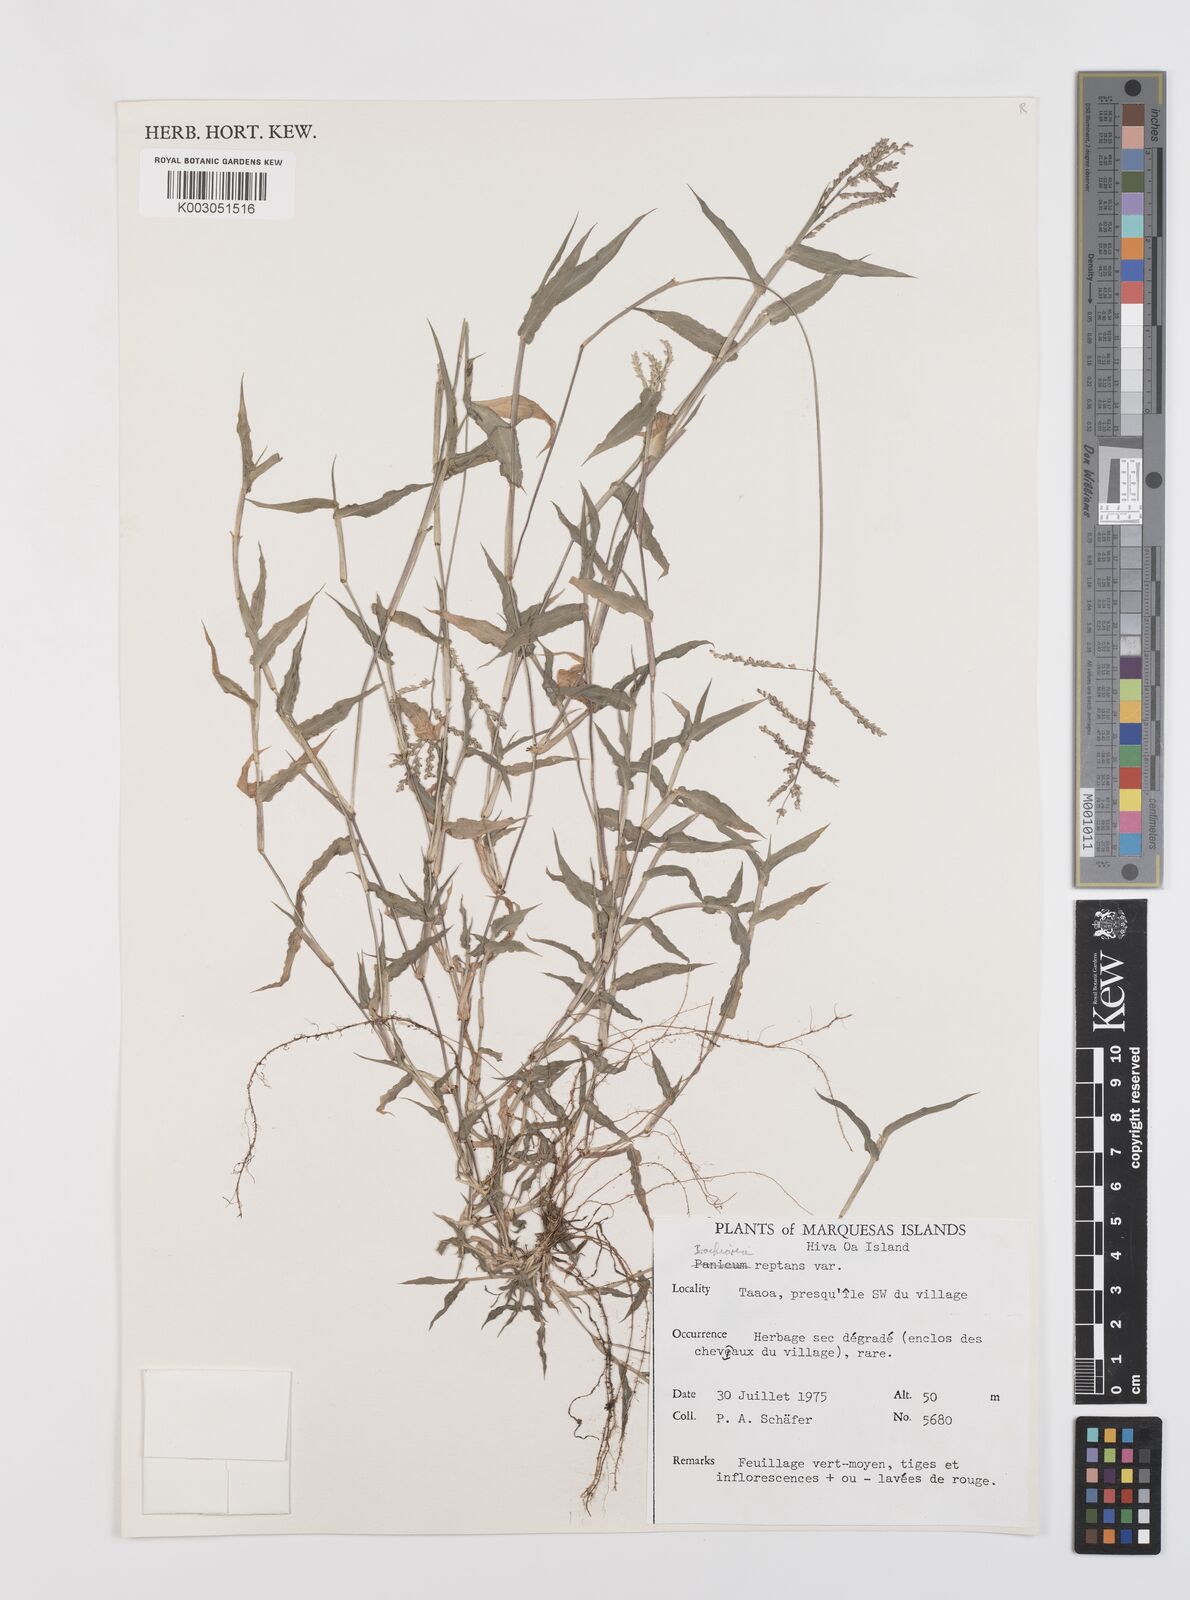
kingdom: Plantae
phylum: Tracheophyta
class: Liliopsida
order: Poales
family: Poaceae
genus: Urochloa
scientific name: Urochloa reptans
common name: Sprawling signalgrass
